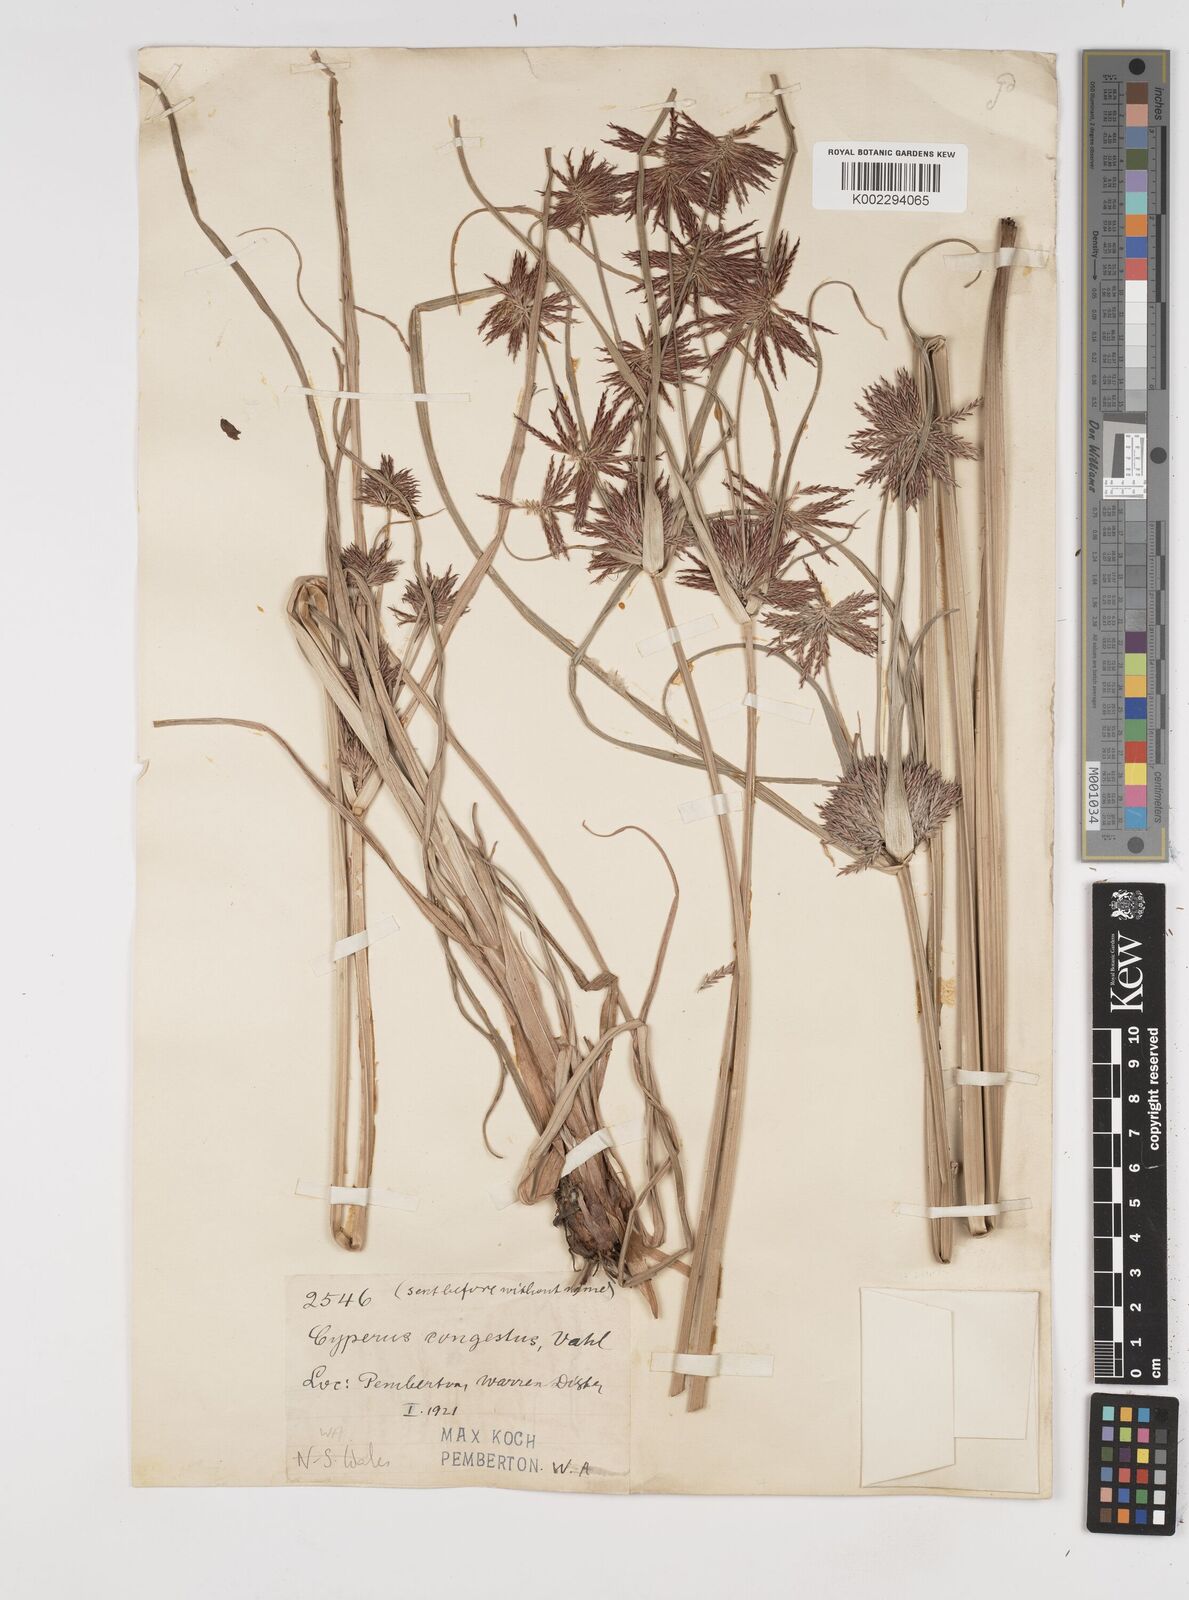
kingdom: Plantae
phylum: Tracheophyta
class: Liliopsida
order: Poales
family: Cyperaceae
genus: Cyperus
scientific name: Cyperus congestus
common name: Dense flat sedge
